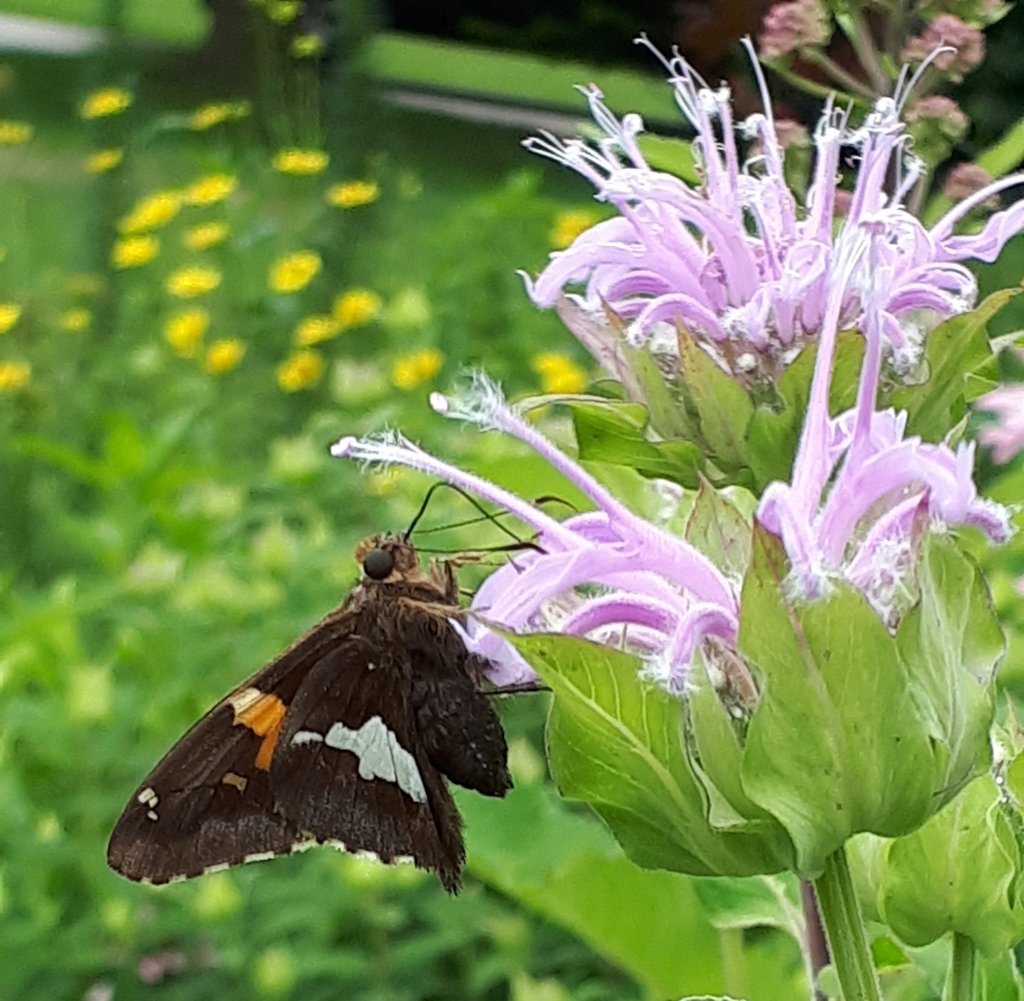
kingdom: Animalia
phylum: Arthropoda
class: Insecta
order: Lepidoptera
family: Hesperiidae
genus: Epargyreus
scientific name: Epargyreus clarus
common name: Silver-spotted Skipper
